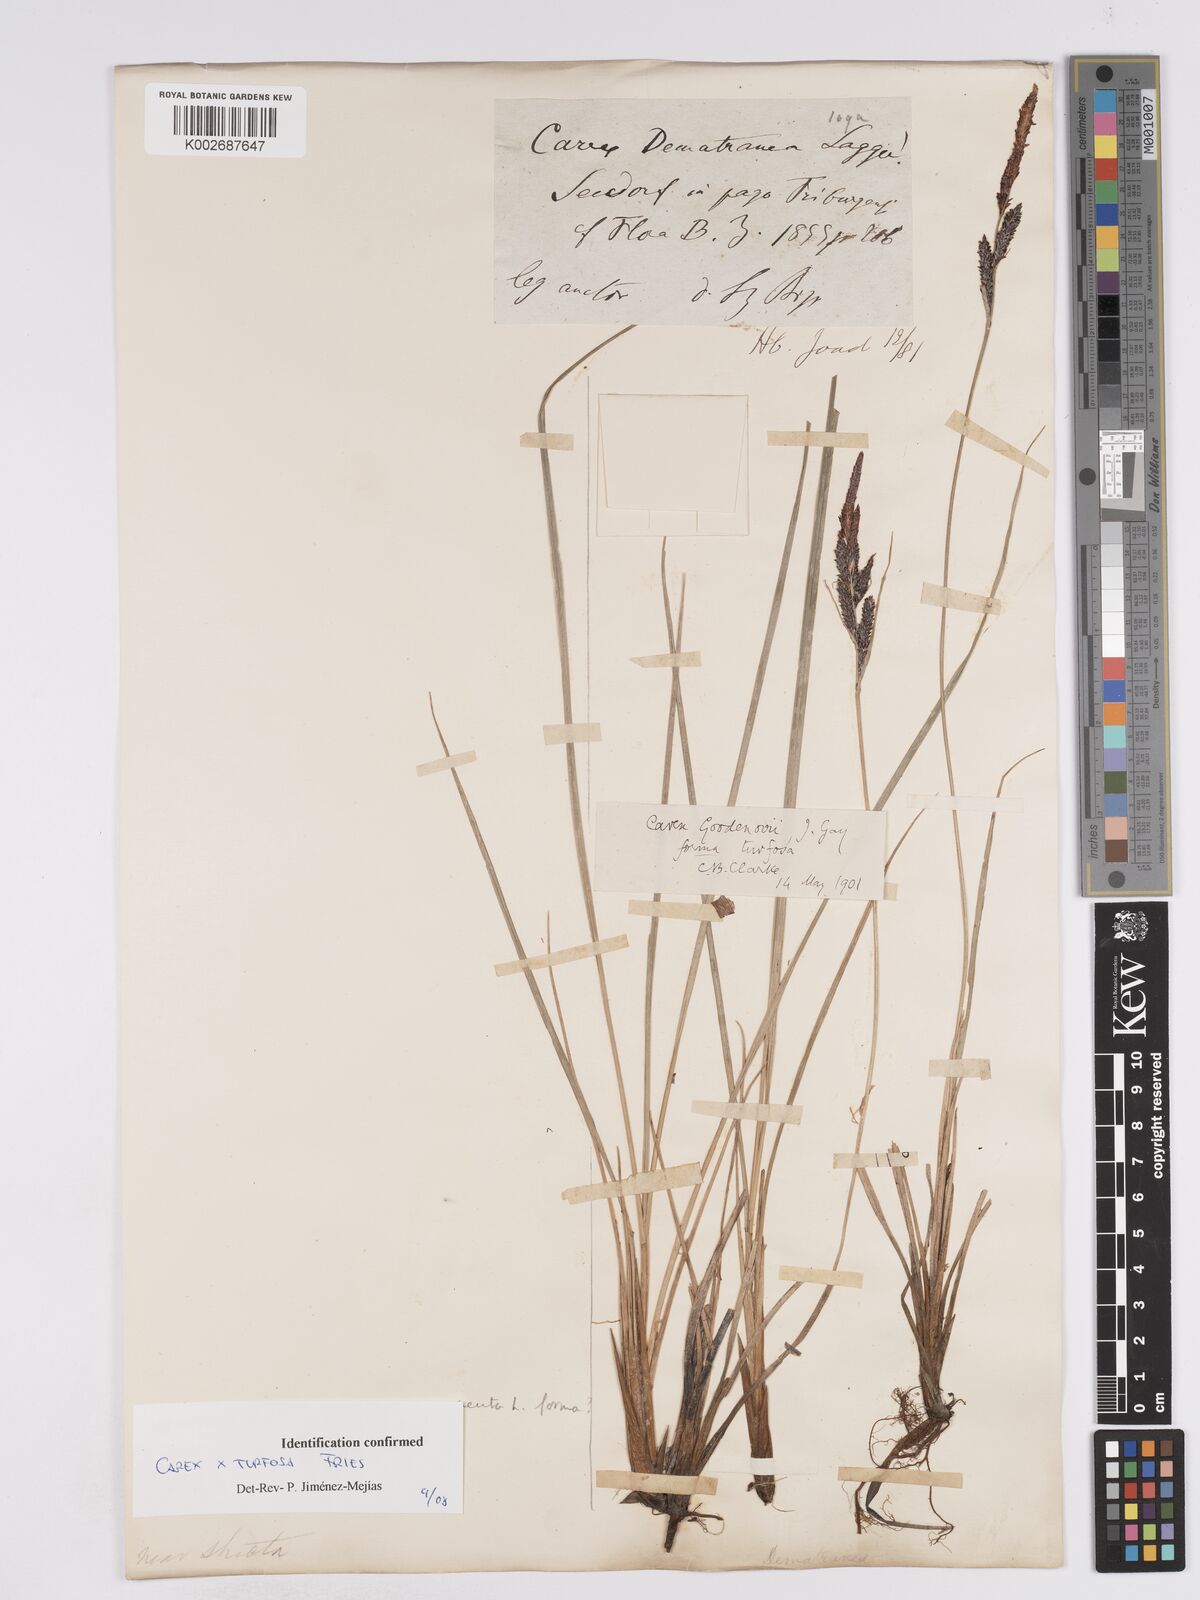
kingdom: Plantae
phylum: Tracheophyta
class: Liliopsida
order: Poales
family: Cyperaceae
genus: Carex
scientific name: Carex nigra
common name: Common sedge
